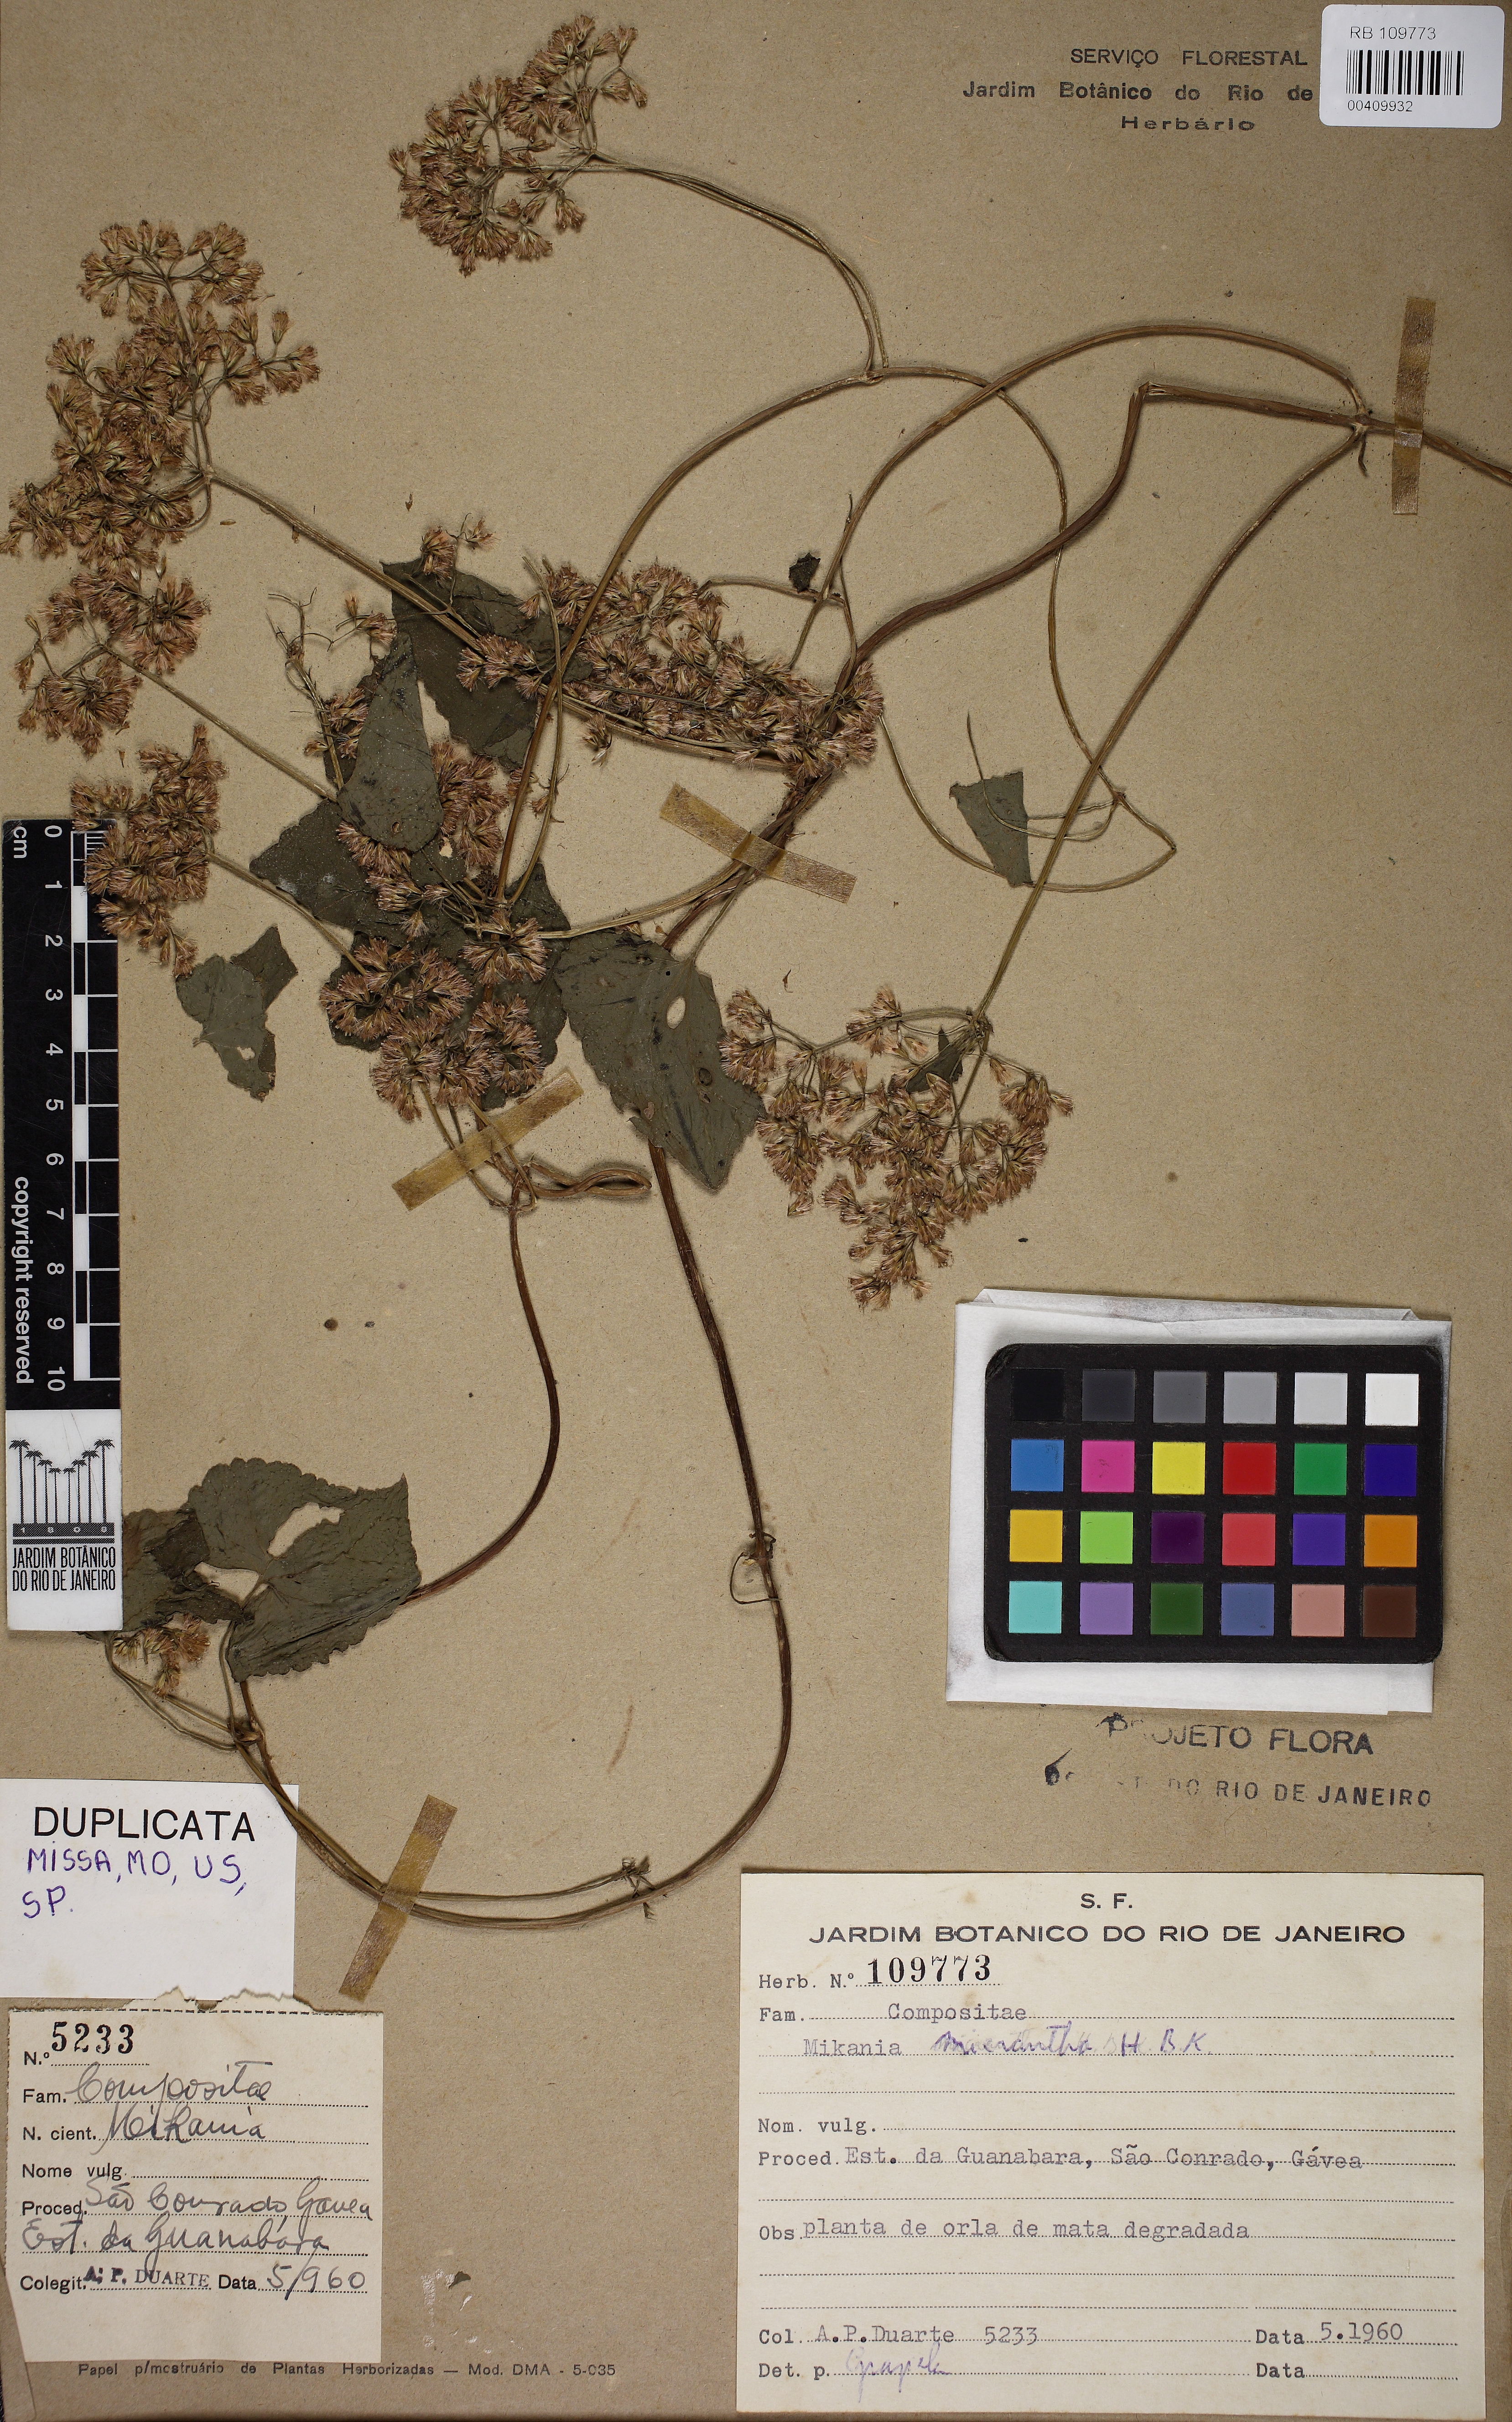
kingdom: Plantae
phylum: Tracheophyta
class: Magnoliopsida
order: Asterales
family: Asteraceae
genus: Mikania
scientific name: Mikania micrantha
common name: Mile-a-minute
